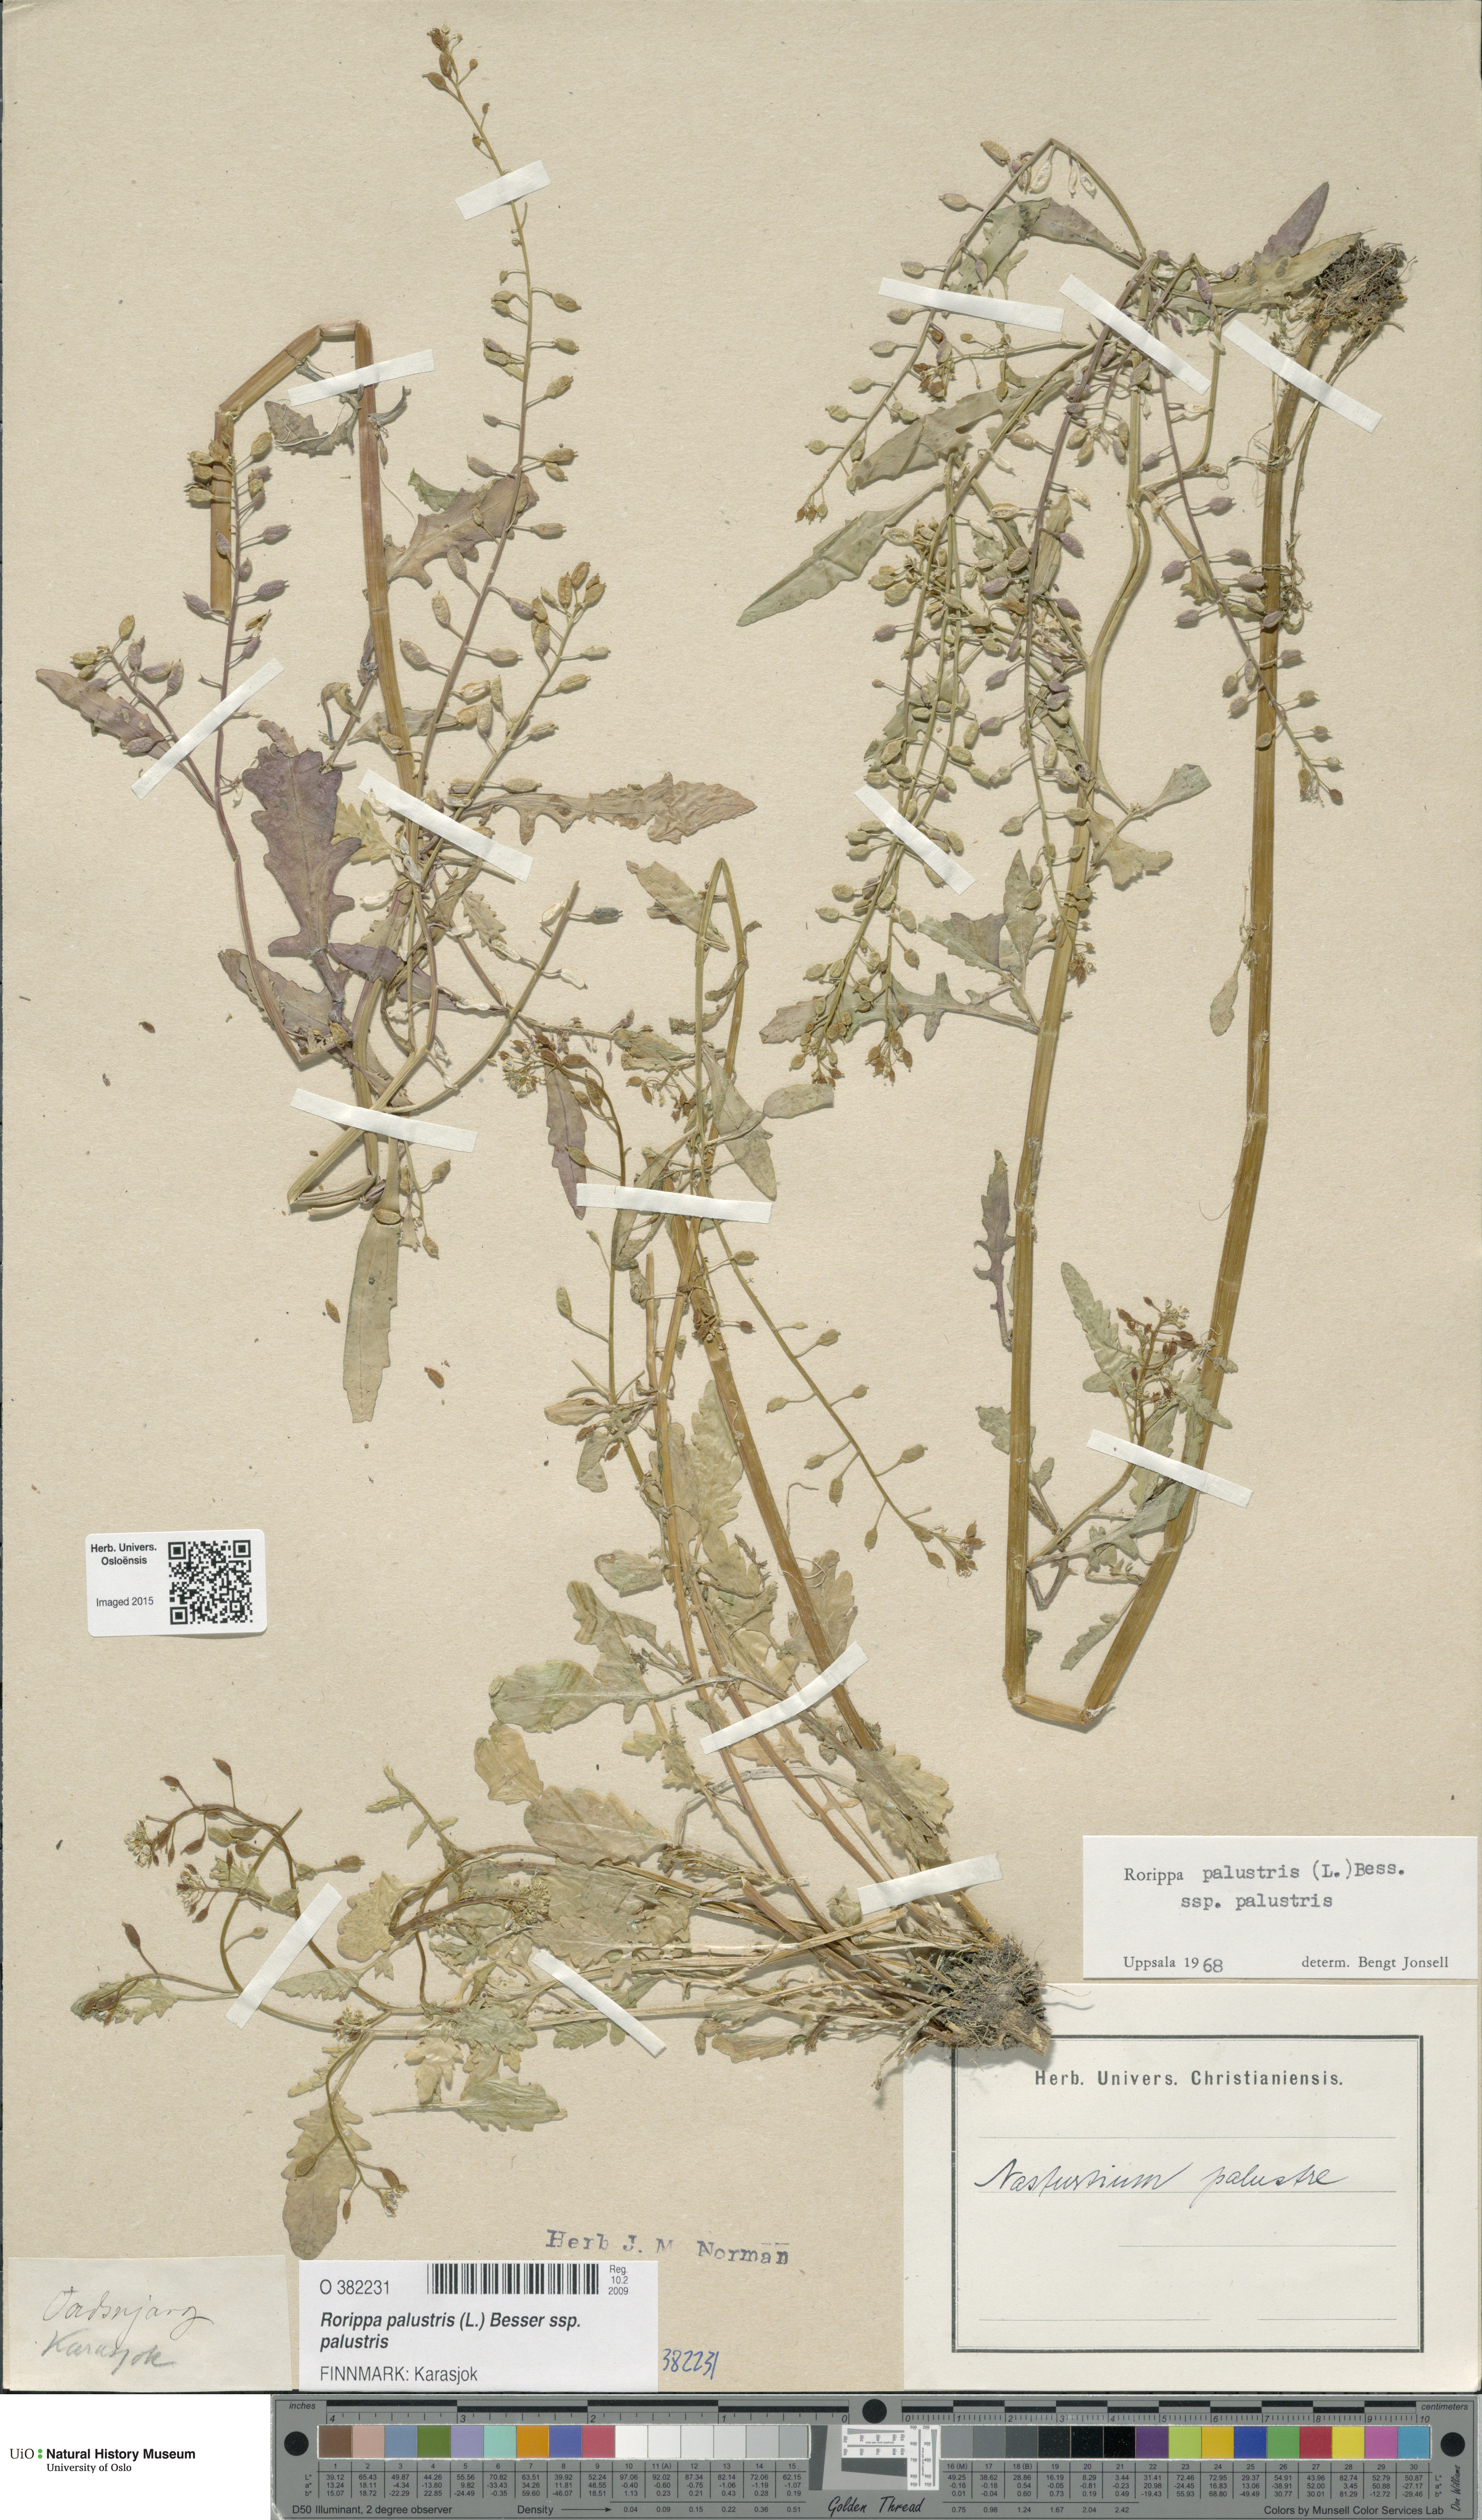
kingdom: Plantae
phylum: Tracheophyta
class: Magnoliopsida
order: Brassicales
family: Brassicaceae
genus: Rorippa
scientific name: Rorippa palustris
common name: Marsh yellow-cress
